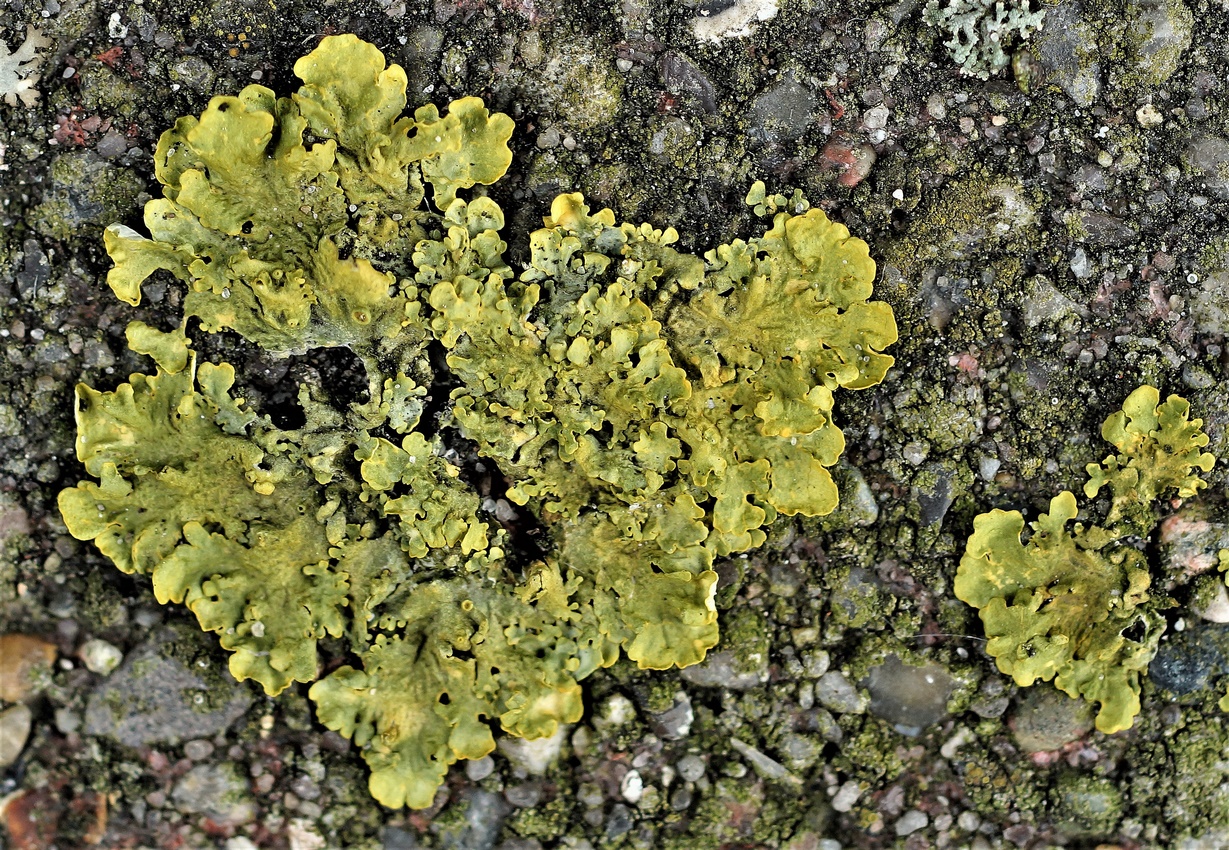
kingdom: Fungi
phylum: Ascomycota
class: Lecanoromycetes
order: Teloschistales
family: Teloschistaceae
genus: Xanthoria
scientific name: Xanthoria parietina
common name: almindelig væggelav
